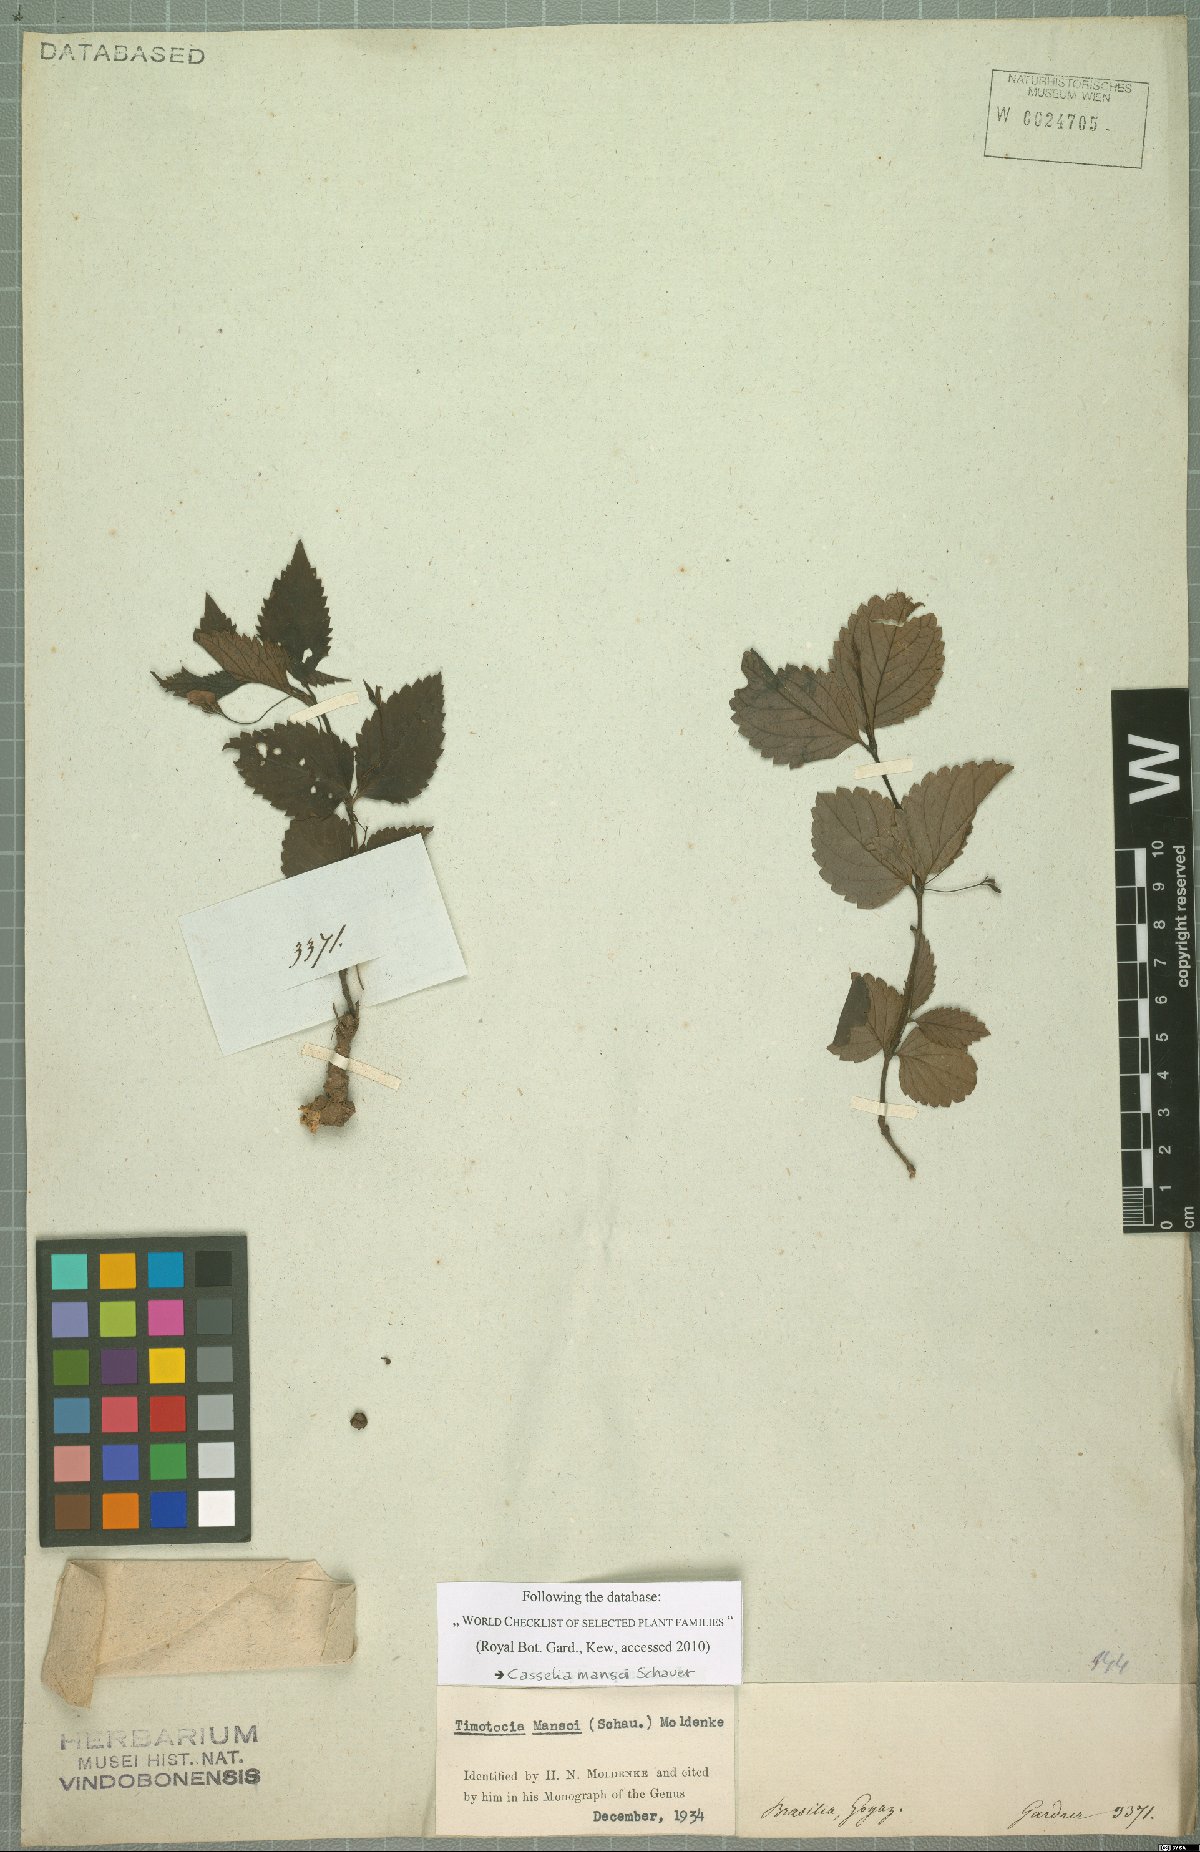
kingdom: Plantae
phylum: Tracheophyta
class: Magnoliopsida
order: Lamiales
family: Verbenaceae
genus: Casselia
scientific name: Casselia chamaedryfolia
